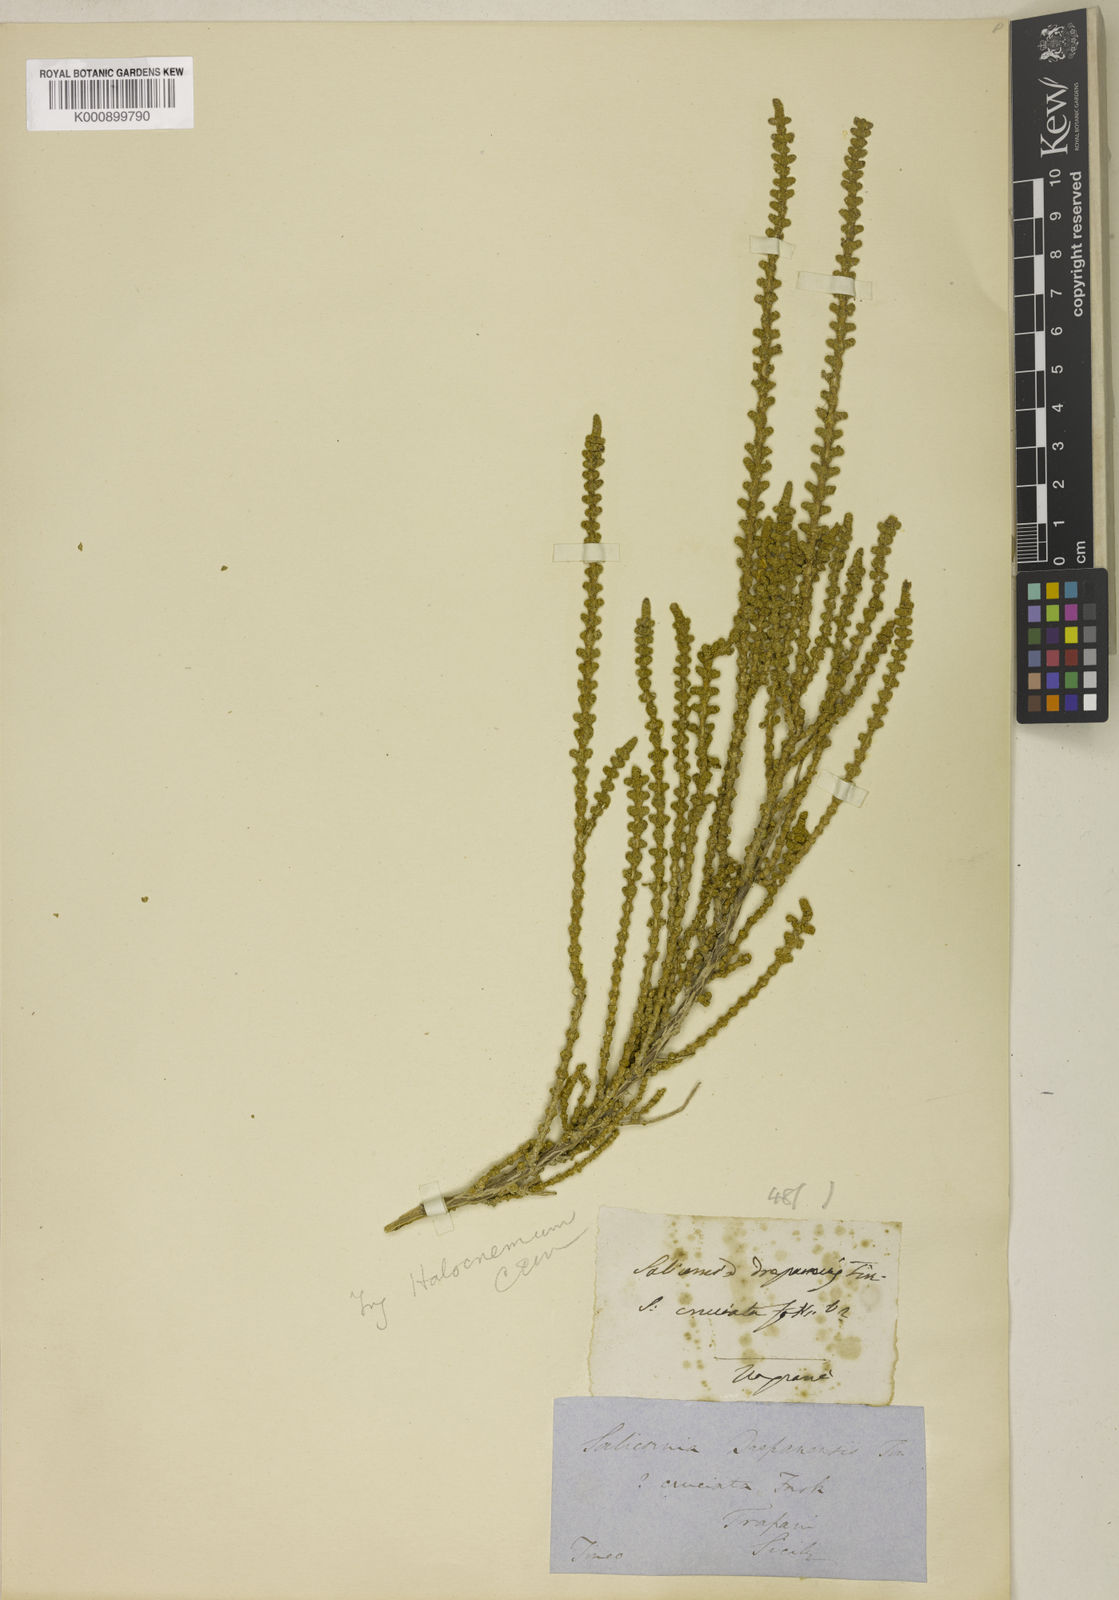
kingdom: Plantae
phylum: Tracheophyta
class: Magnoliopsida
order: Caryophyllales
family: Amaranthaceae
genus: Halocnemum
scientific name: Halocnemum strobilaceum
